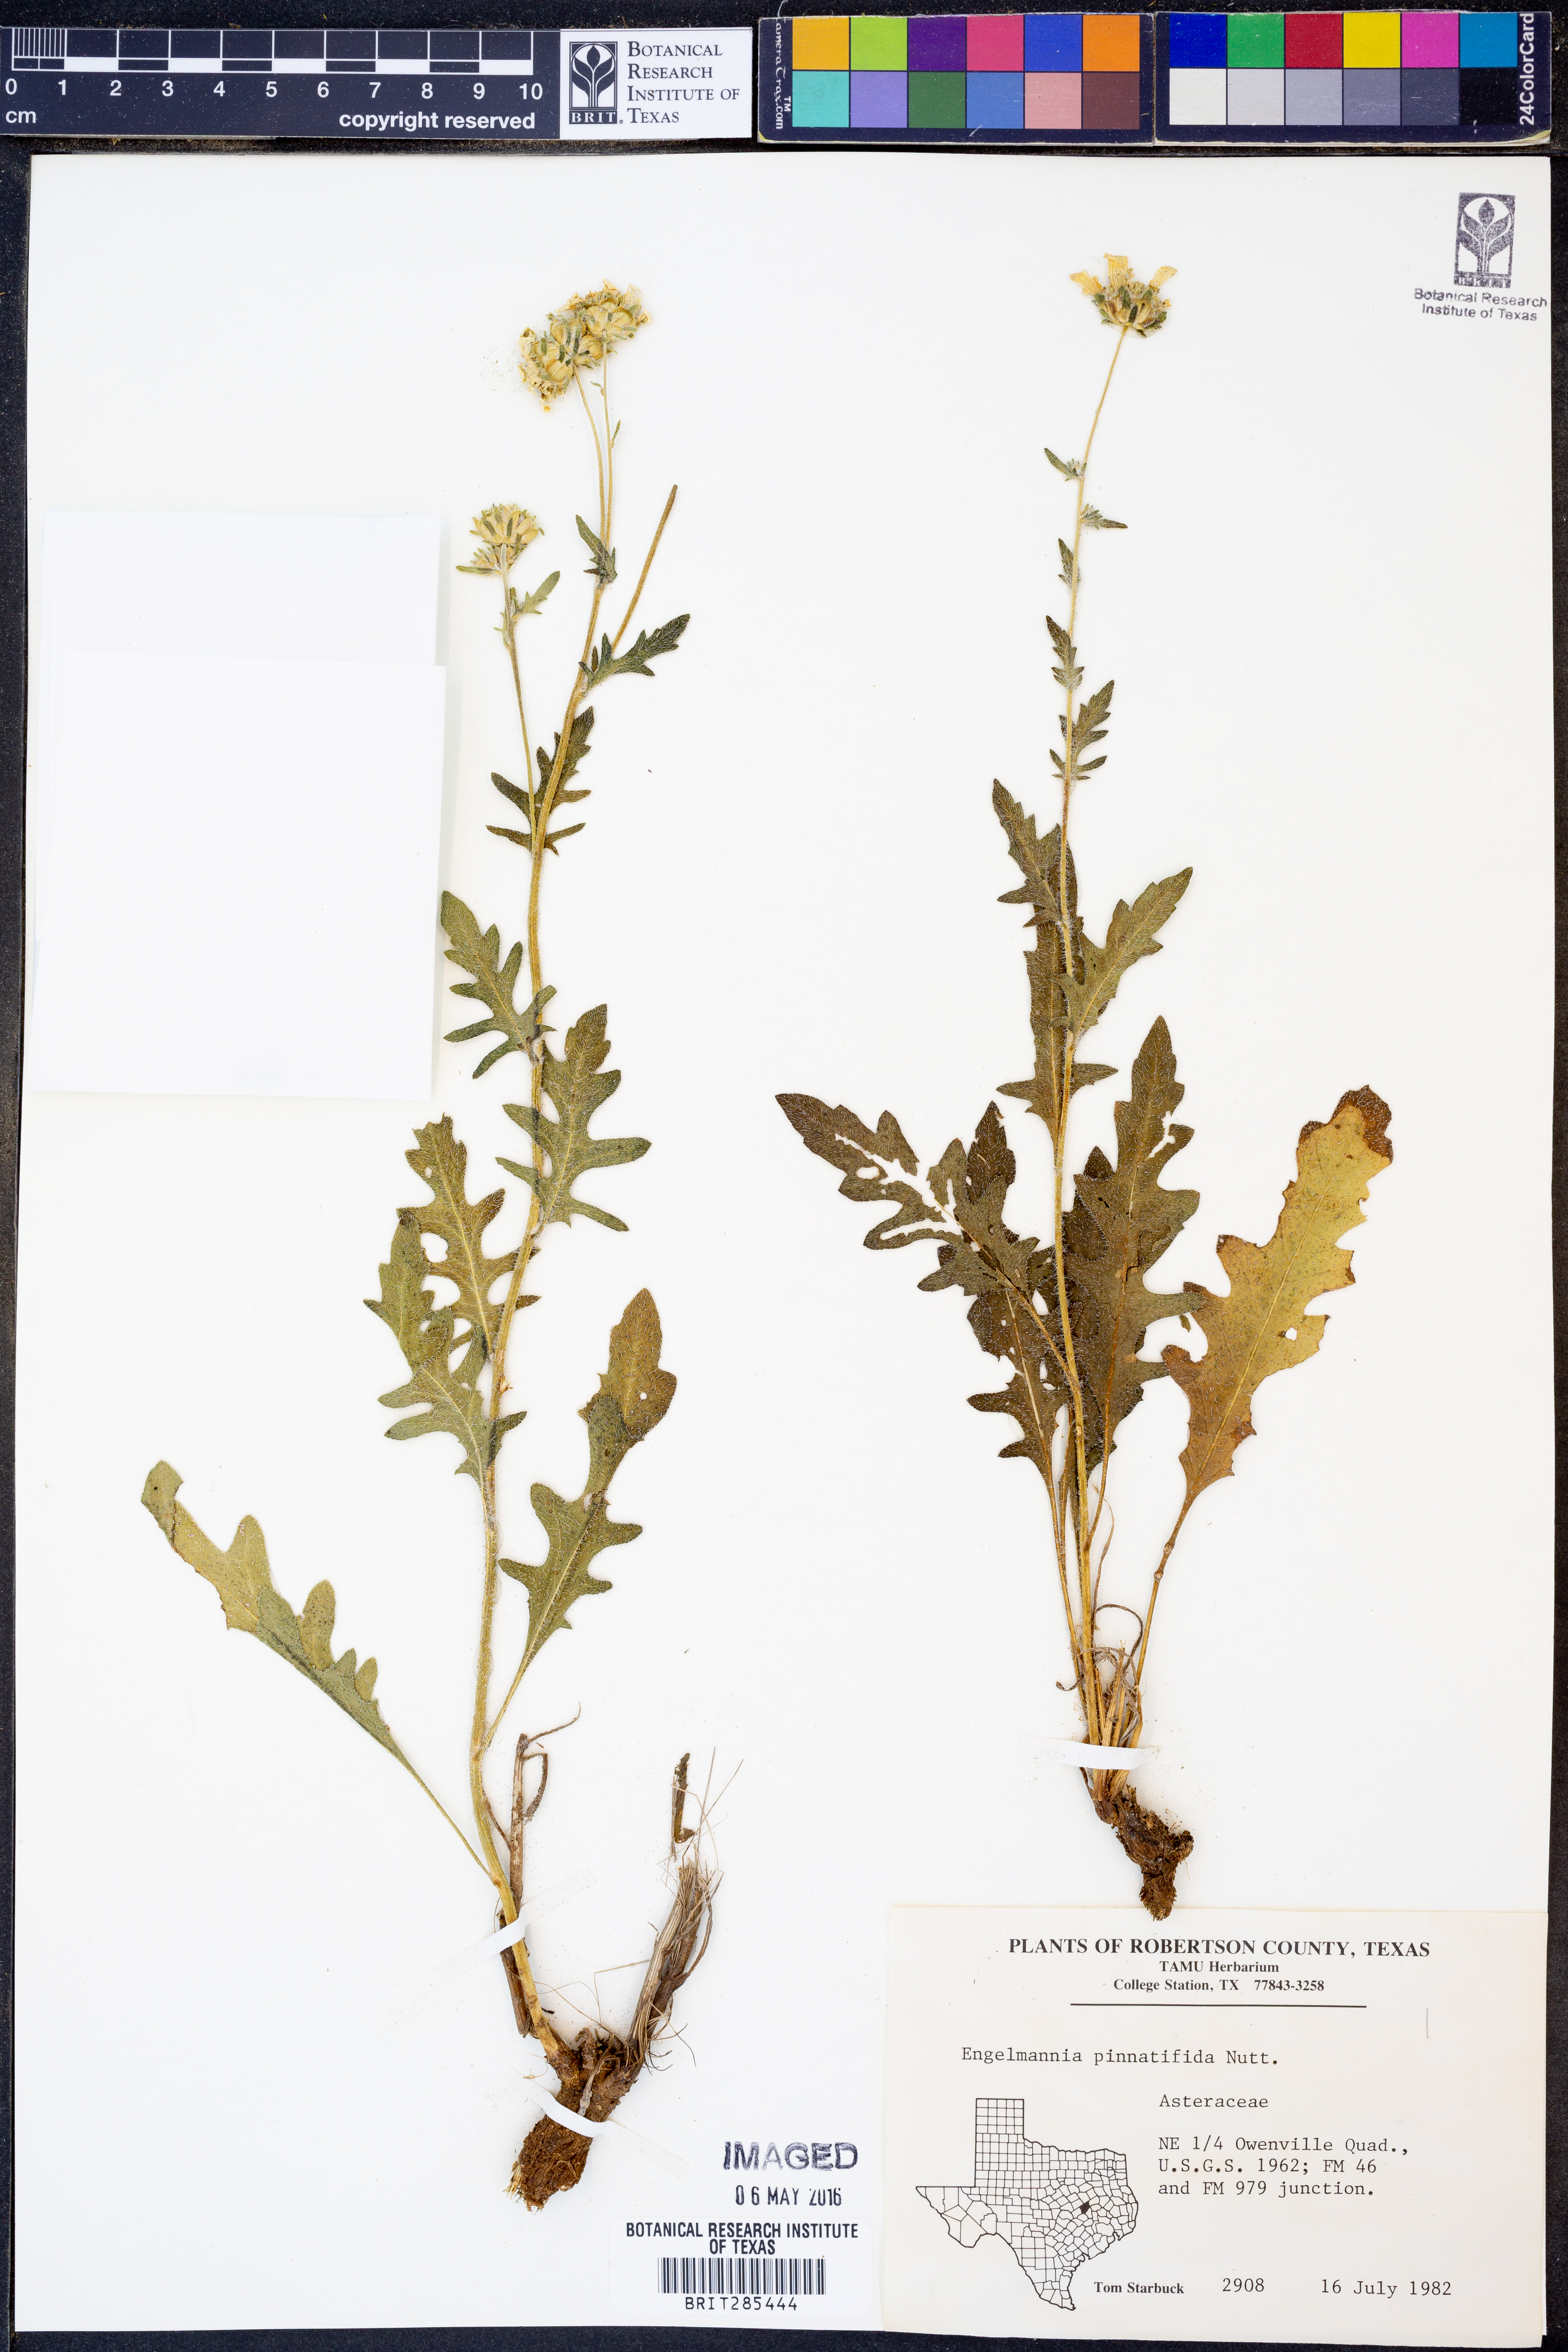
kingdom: Plantae
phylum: Tracheophyta
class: Magnoliopsida
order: Asterales
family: Asteraceae
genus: Engelmannia
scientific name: Engelmannia peristenia
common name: Engelmann's daisy
